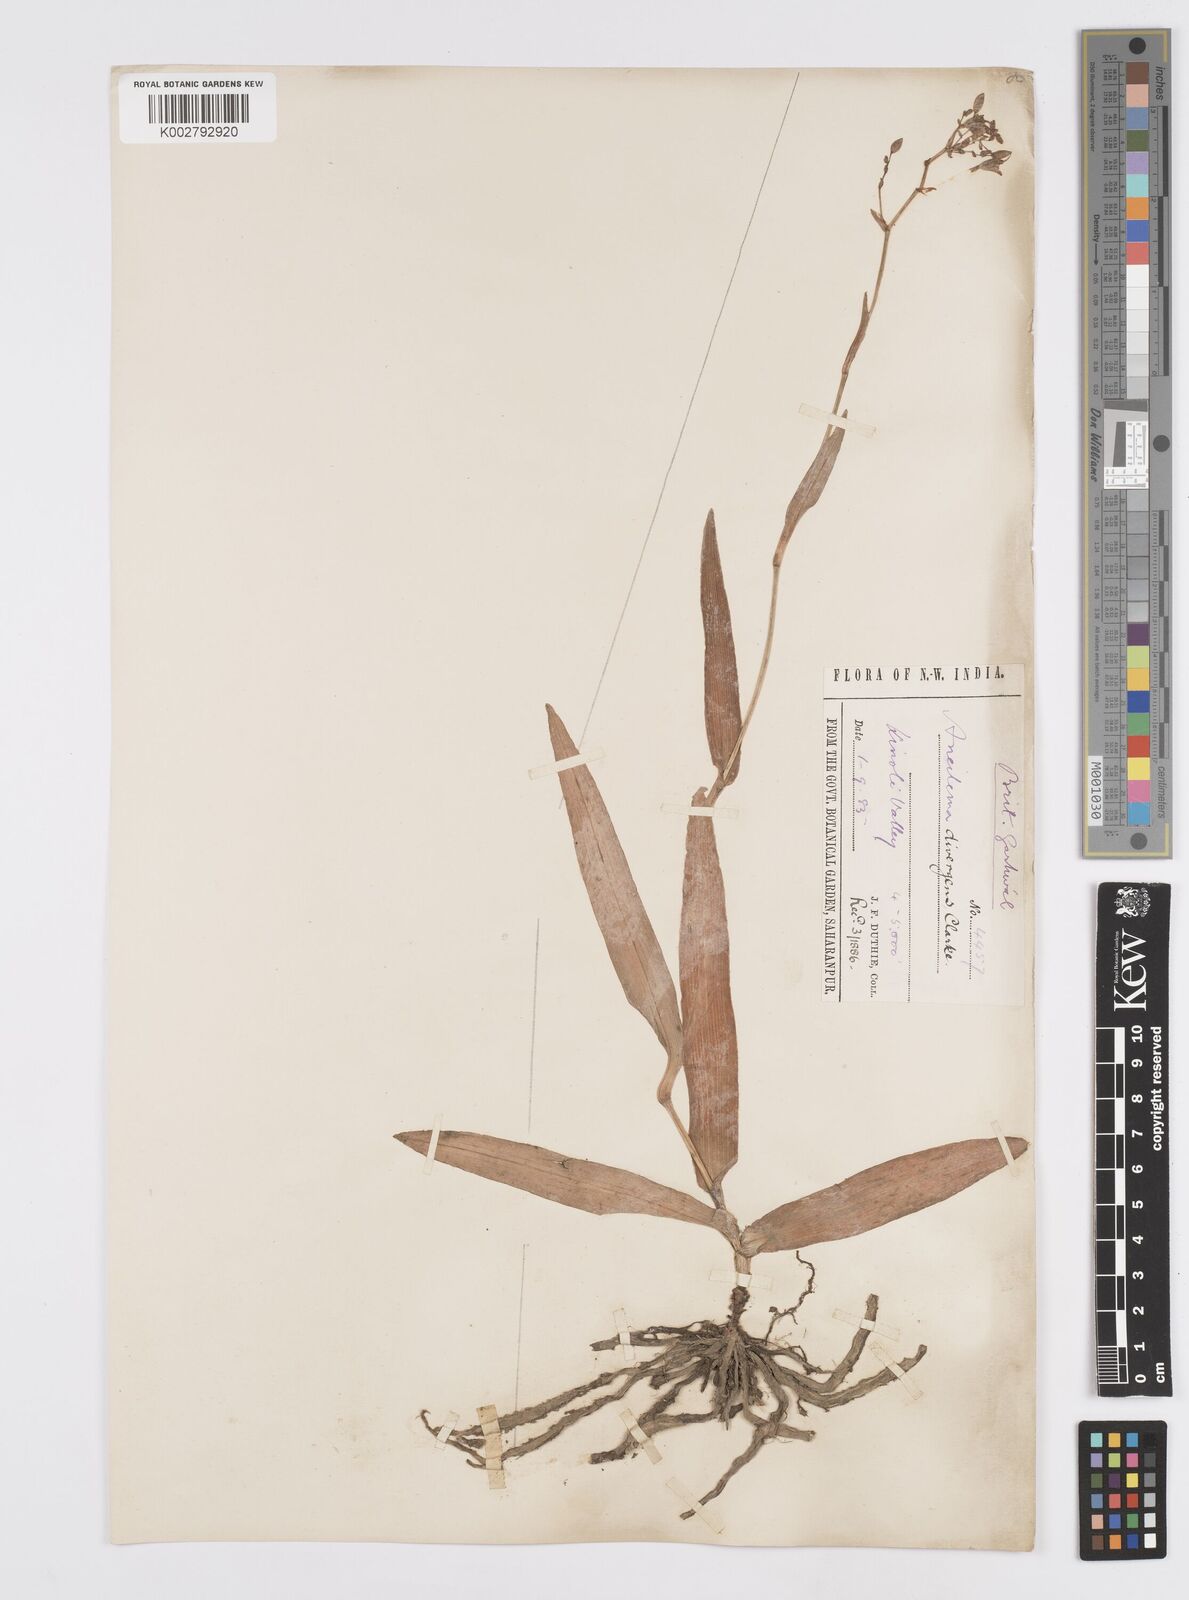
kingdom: Plantae
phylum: Tracheophyta
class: Liliopsida
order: Commelinales
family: Commelinaceae
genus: Murdannia
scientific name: Murdannia divergens
